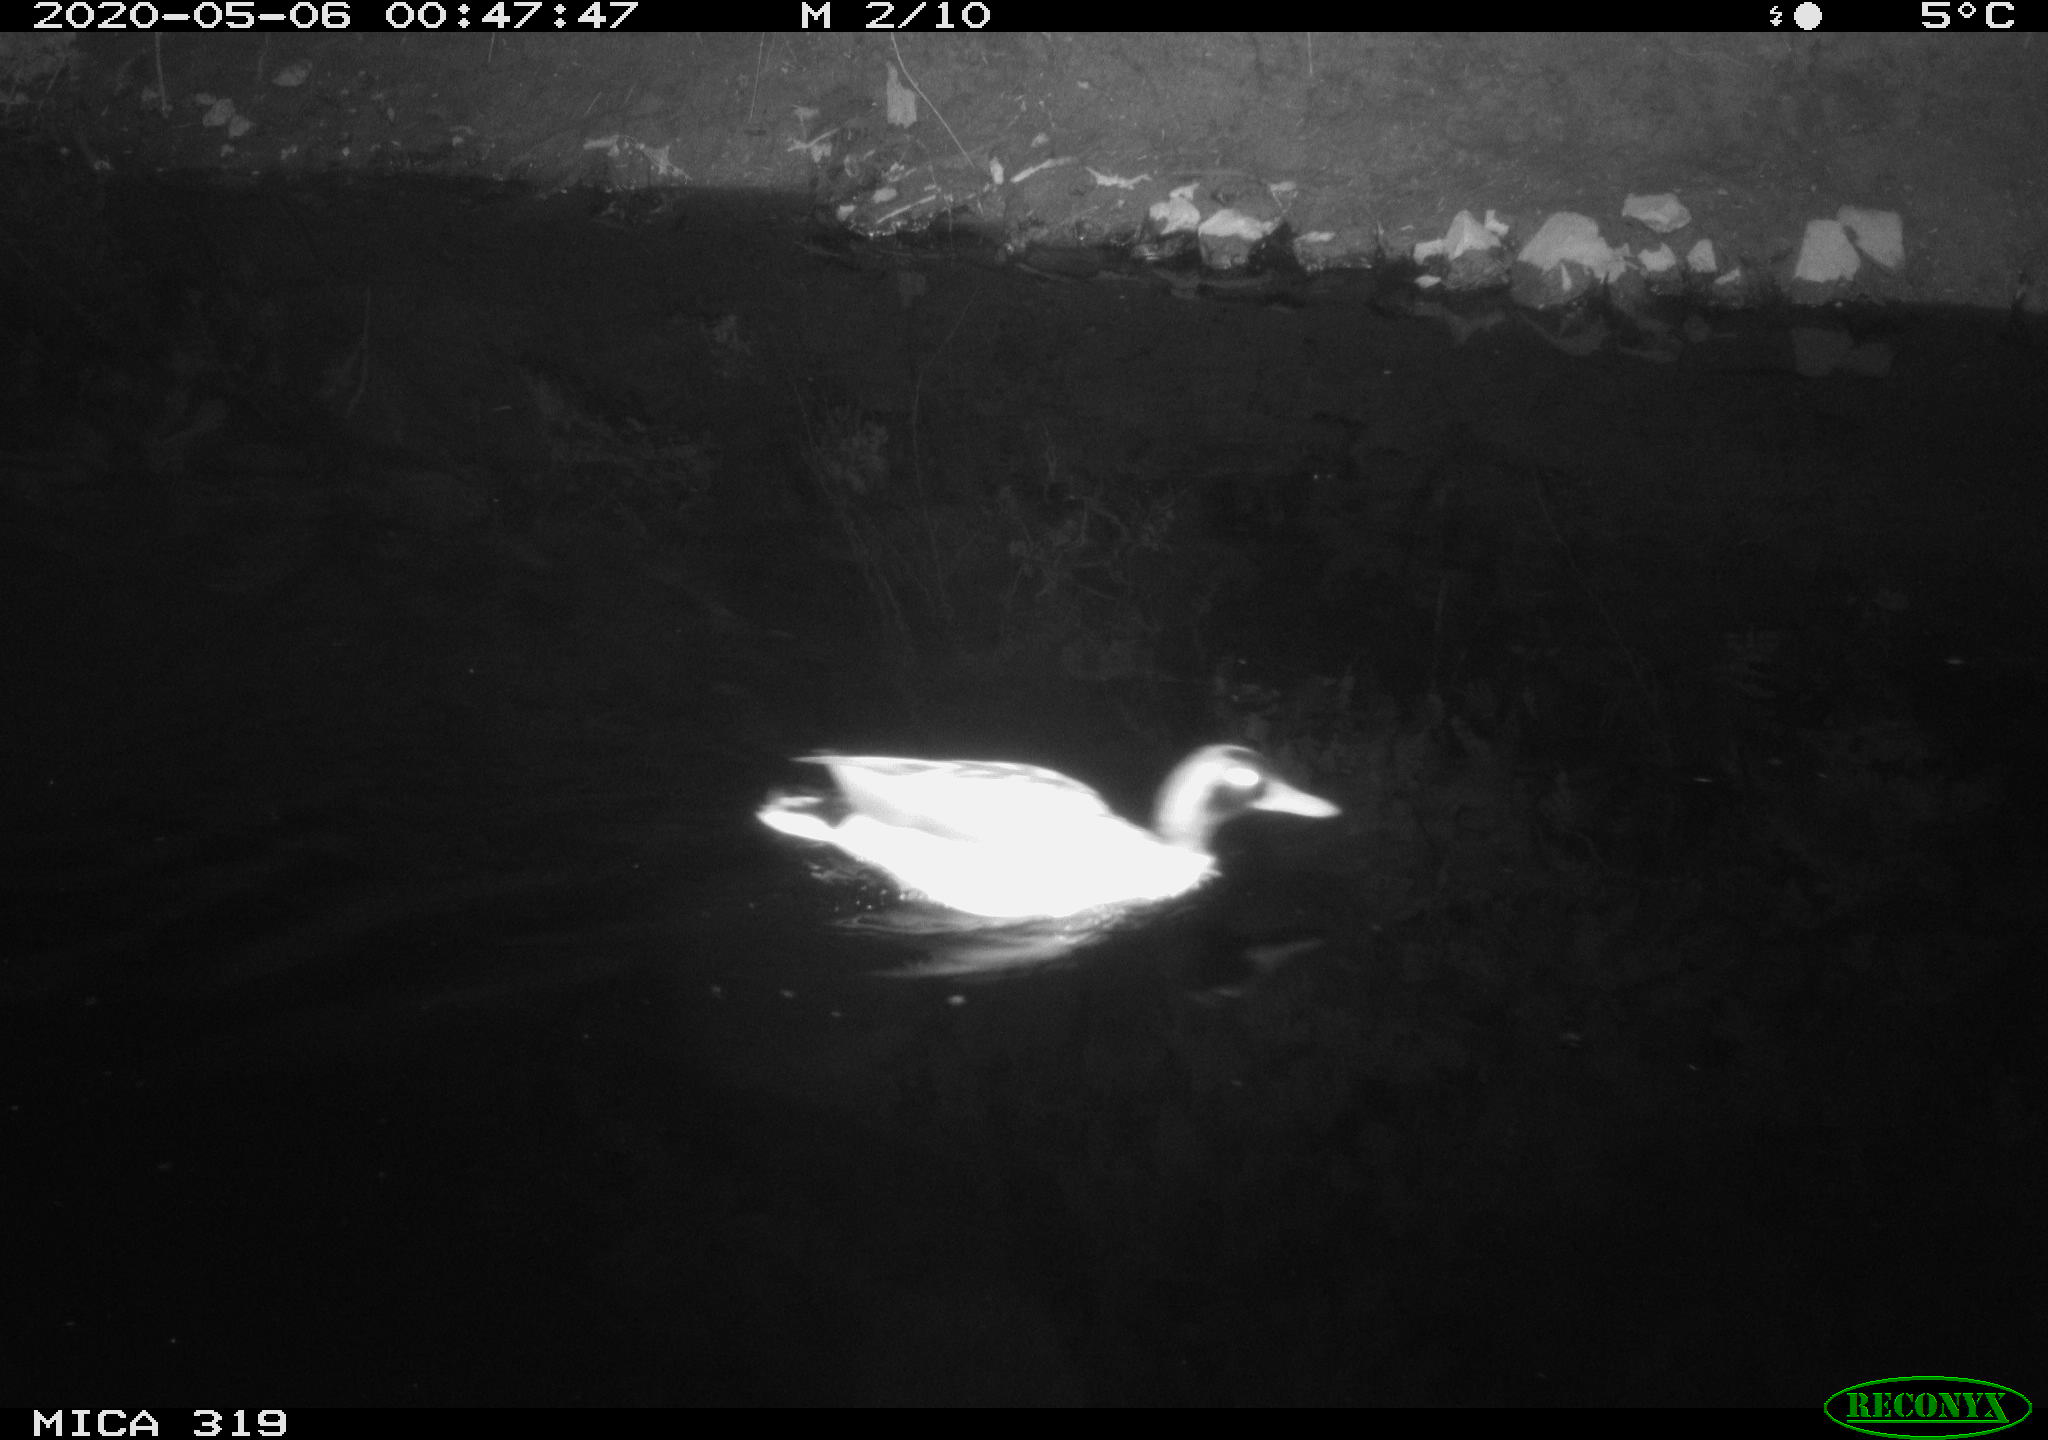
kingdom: Animalia
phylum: Chordata
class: Aves
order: Anseriformes
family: Anatidae
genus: Anas
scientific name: Anas platyrhynchos
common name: Mallard
